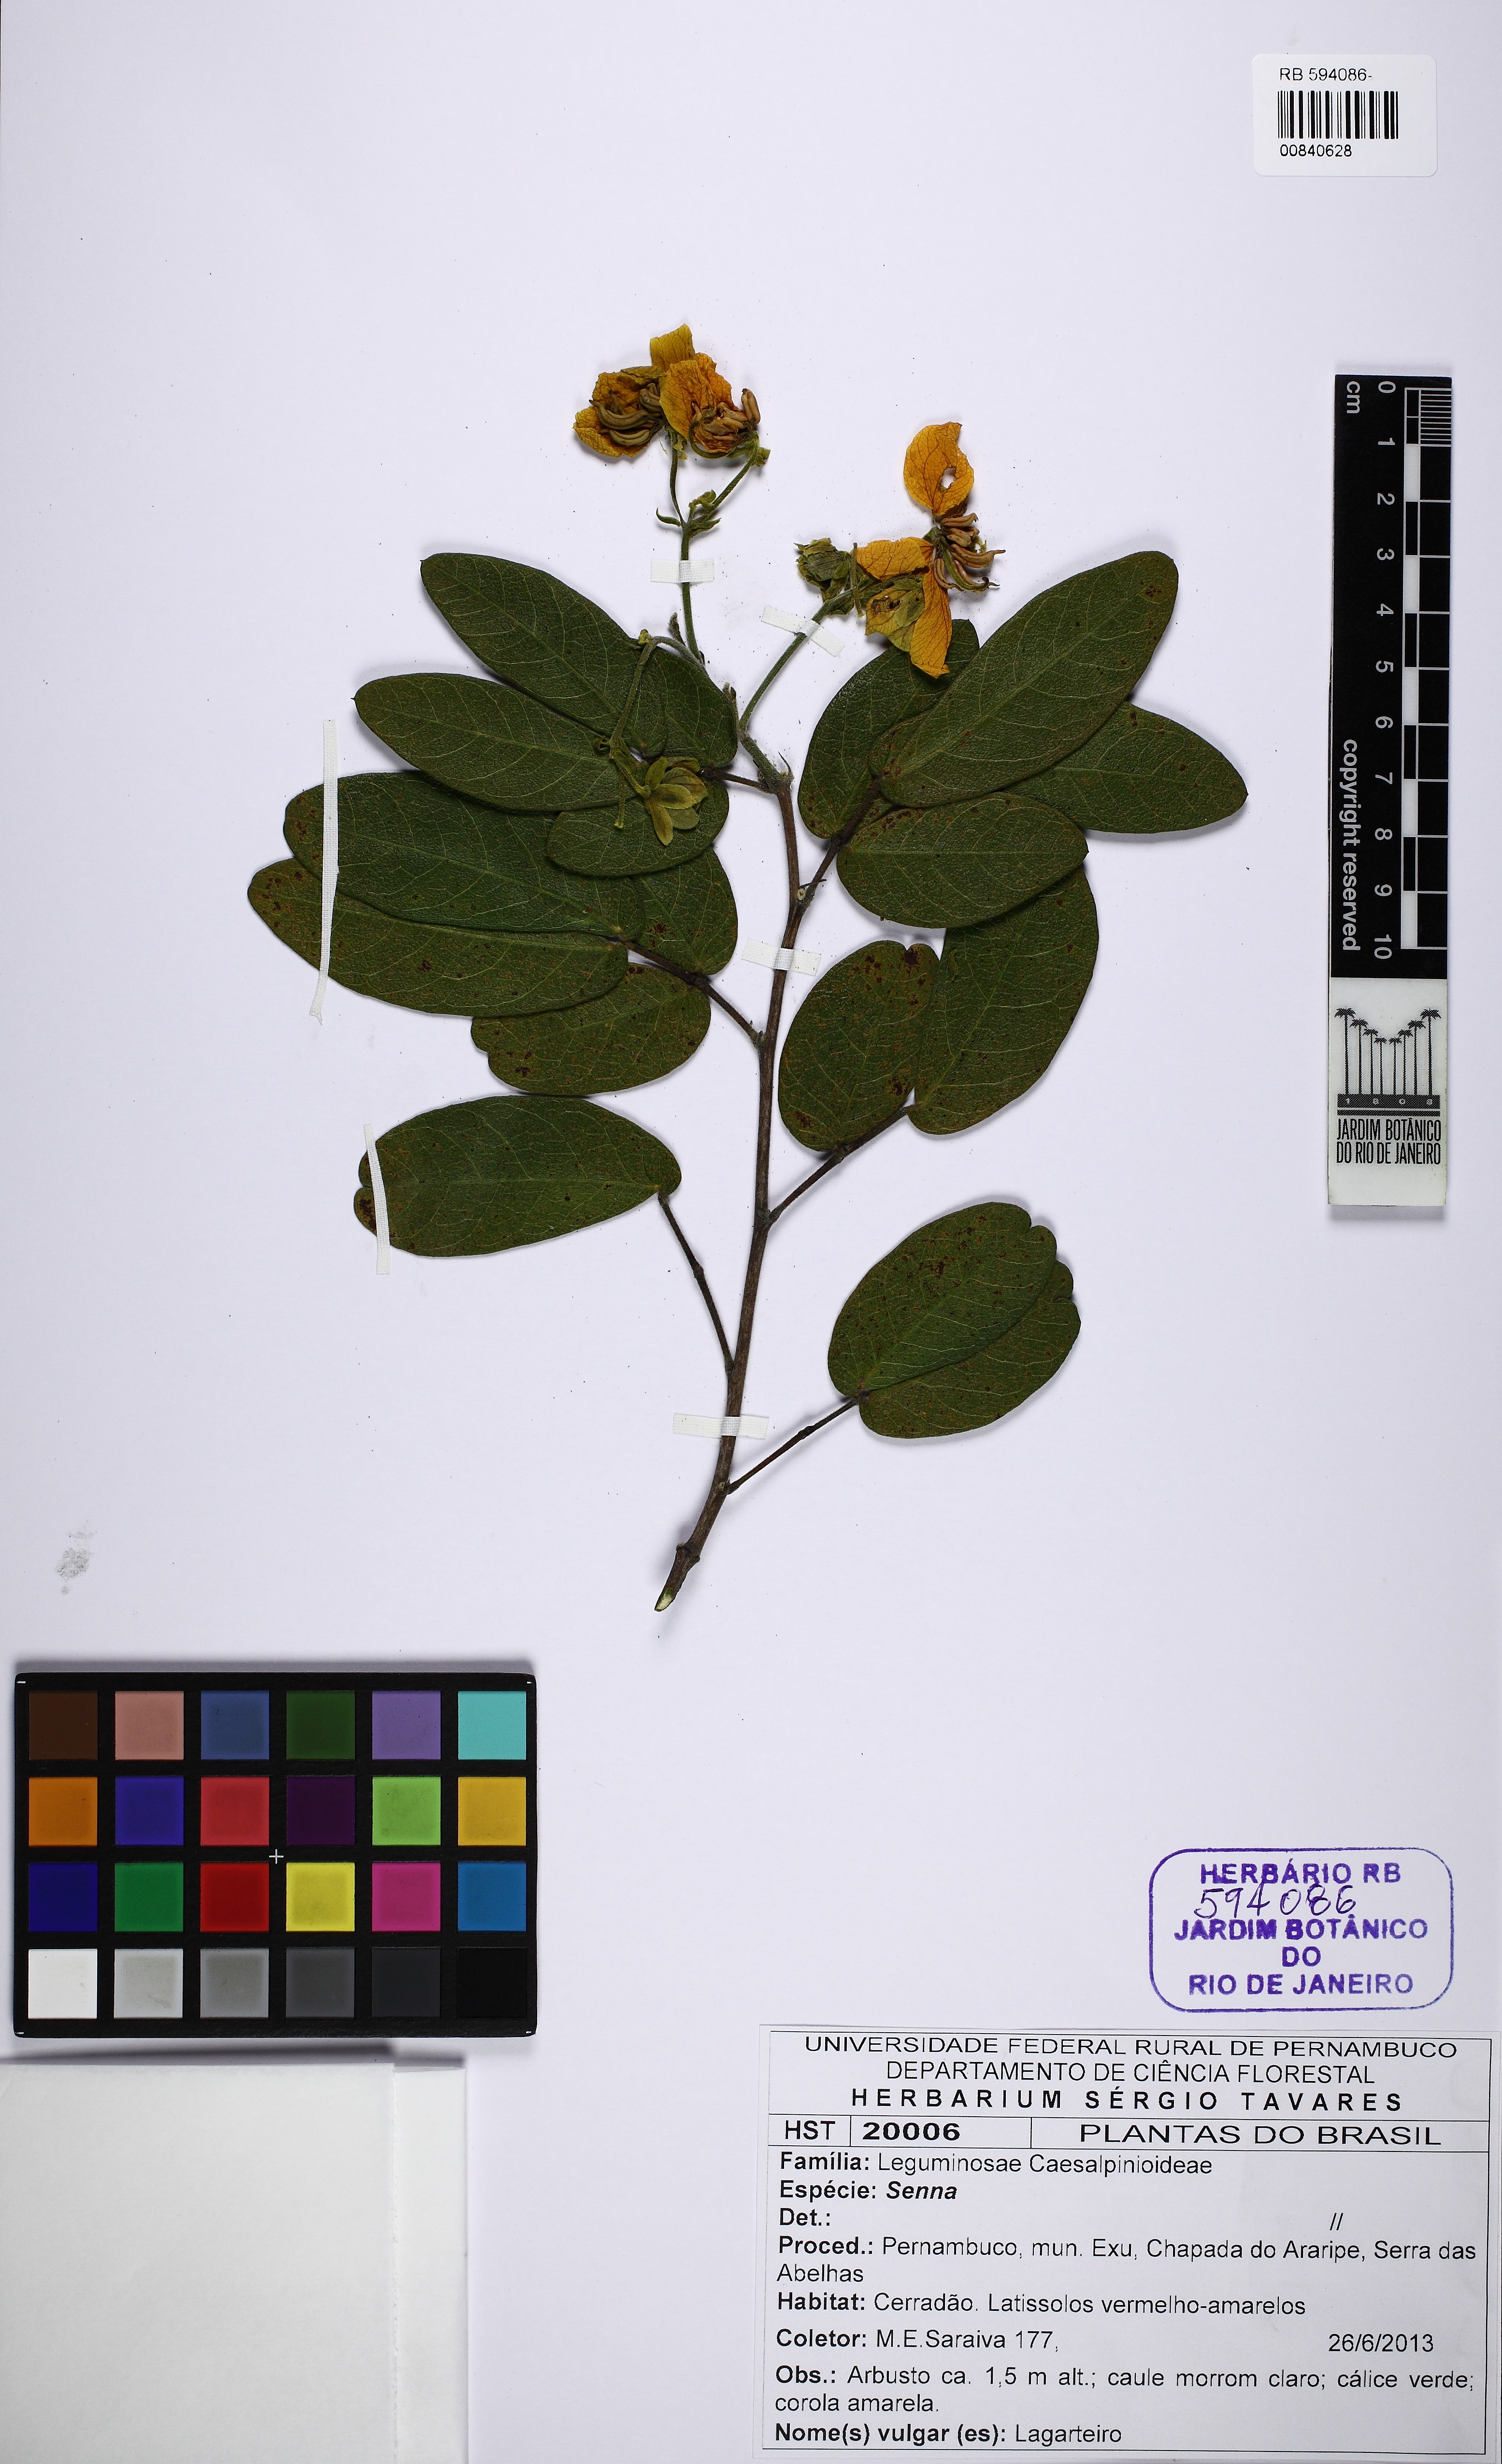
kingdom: Plantae
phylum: Tracheophyta
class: Magnoliopsida
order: Fabales
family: Fabaceae
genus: Senna
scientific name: Senna rugosa
